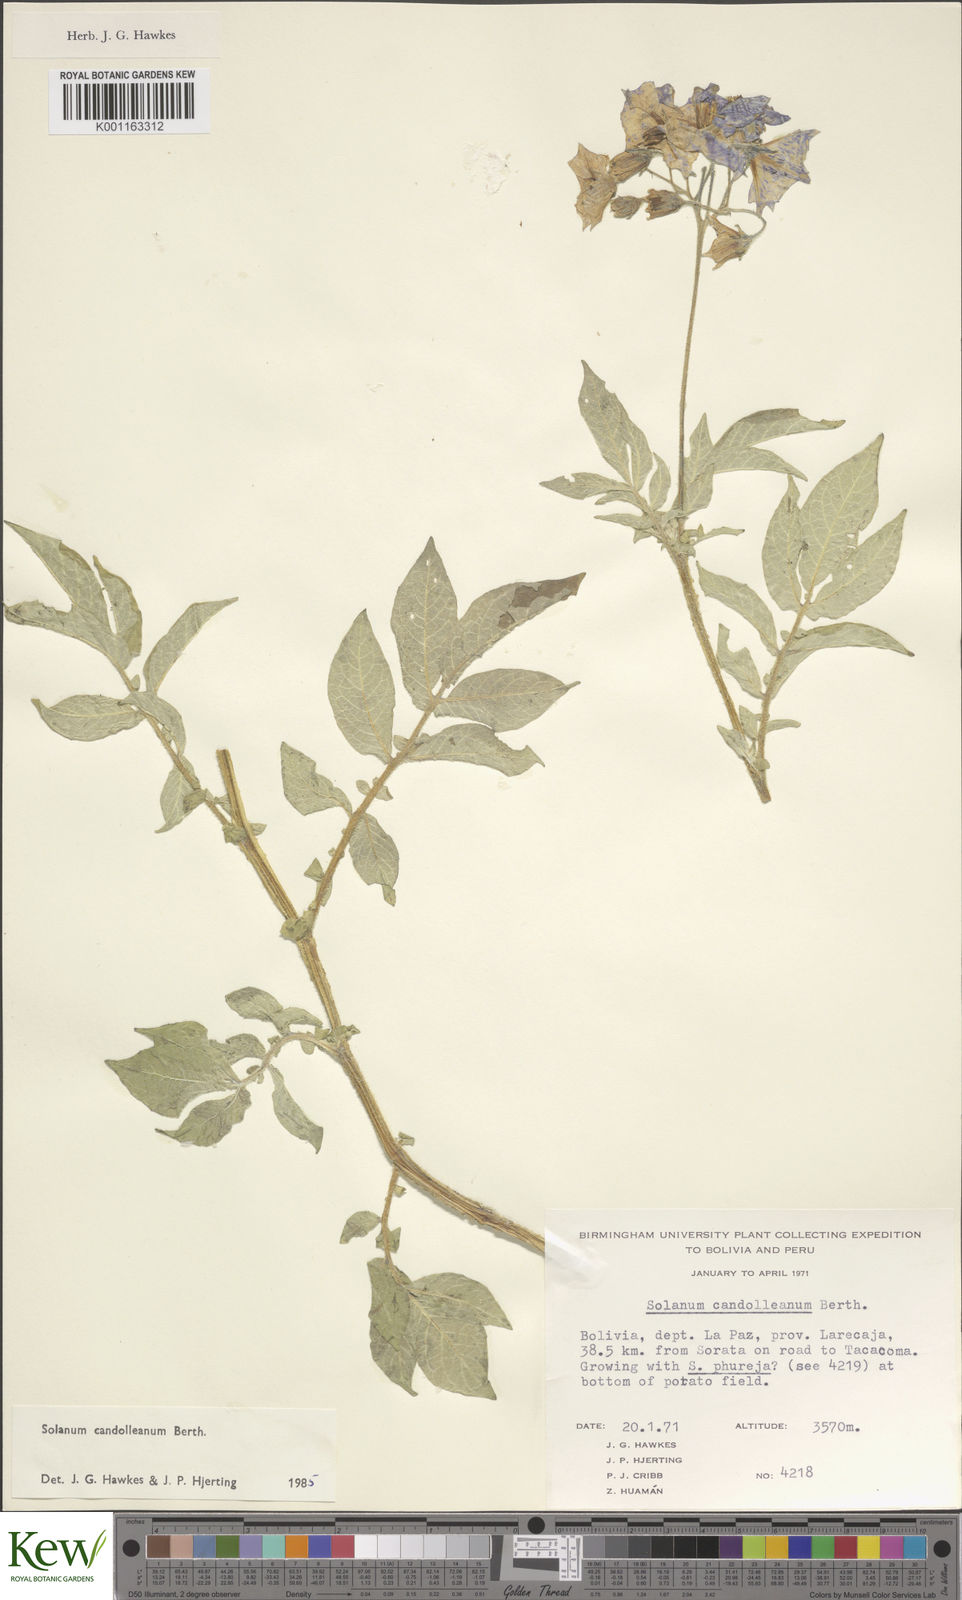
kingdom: Plantae
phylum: Tracheophyta
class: Magnoliopsida
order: Solanales
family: Solanaceae
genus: Solanum
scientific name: Solanum candolleanum
